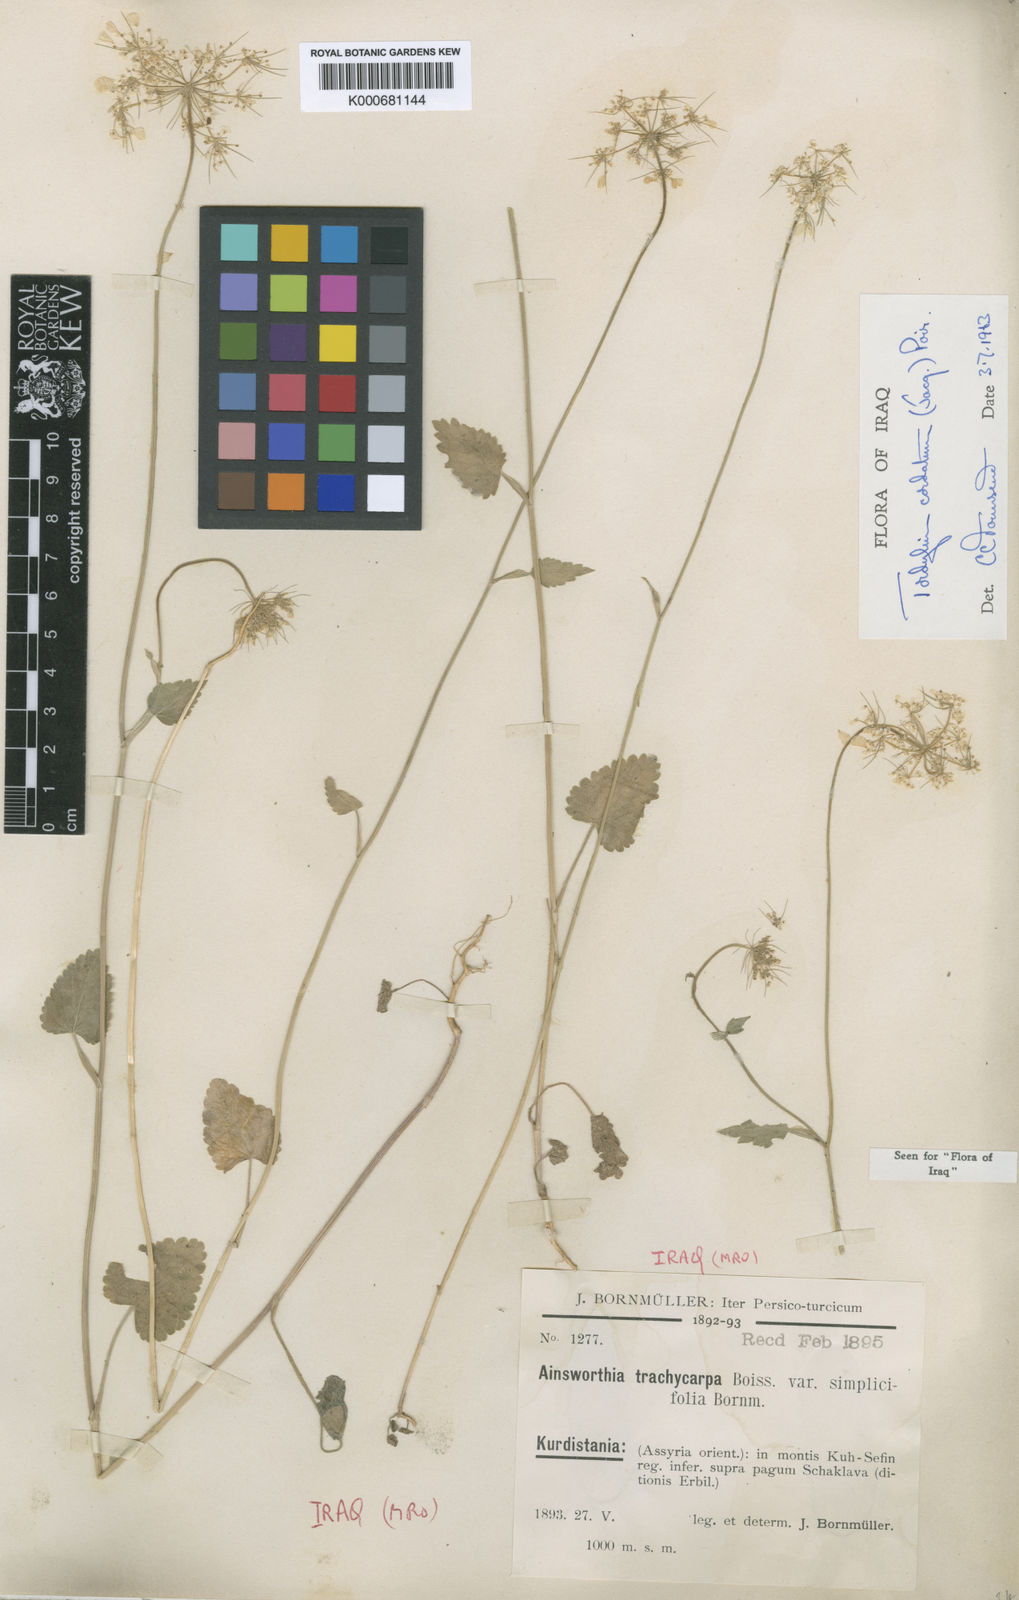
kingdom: Plantae
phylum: Tracheophyta
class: Magnoliopsida
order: Apiales
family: Apiaceae
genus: Ainsworthia
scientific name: Ainsworthia trachycarpa
